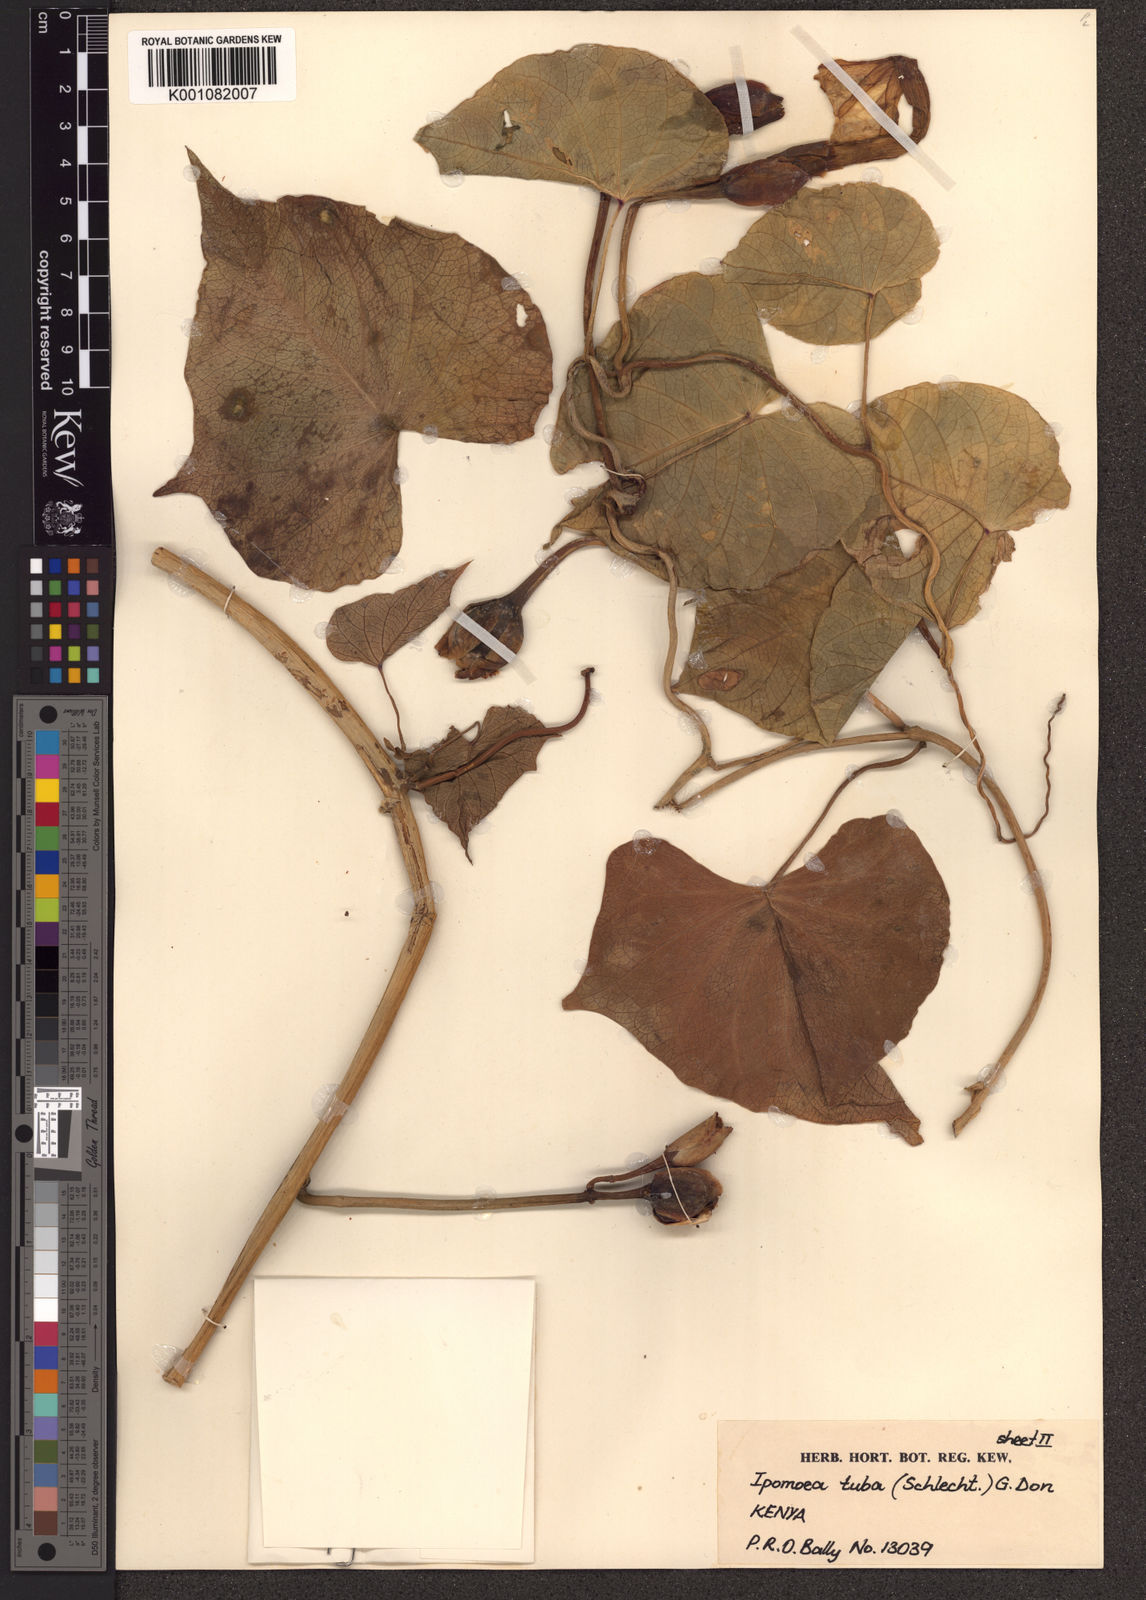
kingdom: Plantae
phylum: Tracheophyta
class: Magnoliopsida
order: Solanales
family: Convolvulaceae
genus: Ipomoea
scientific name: Ipomoea violacea
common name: Beach moonflower
